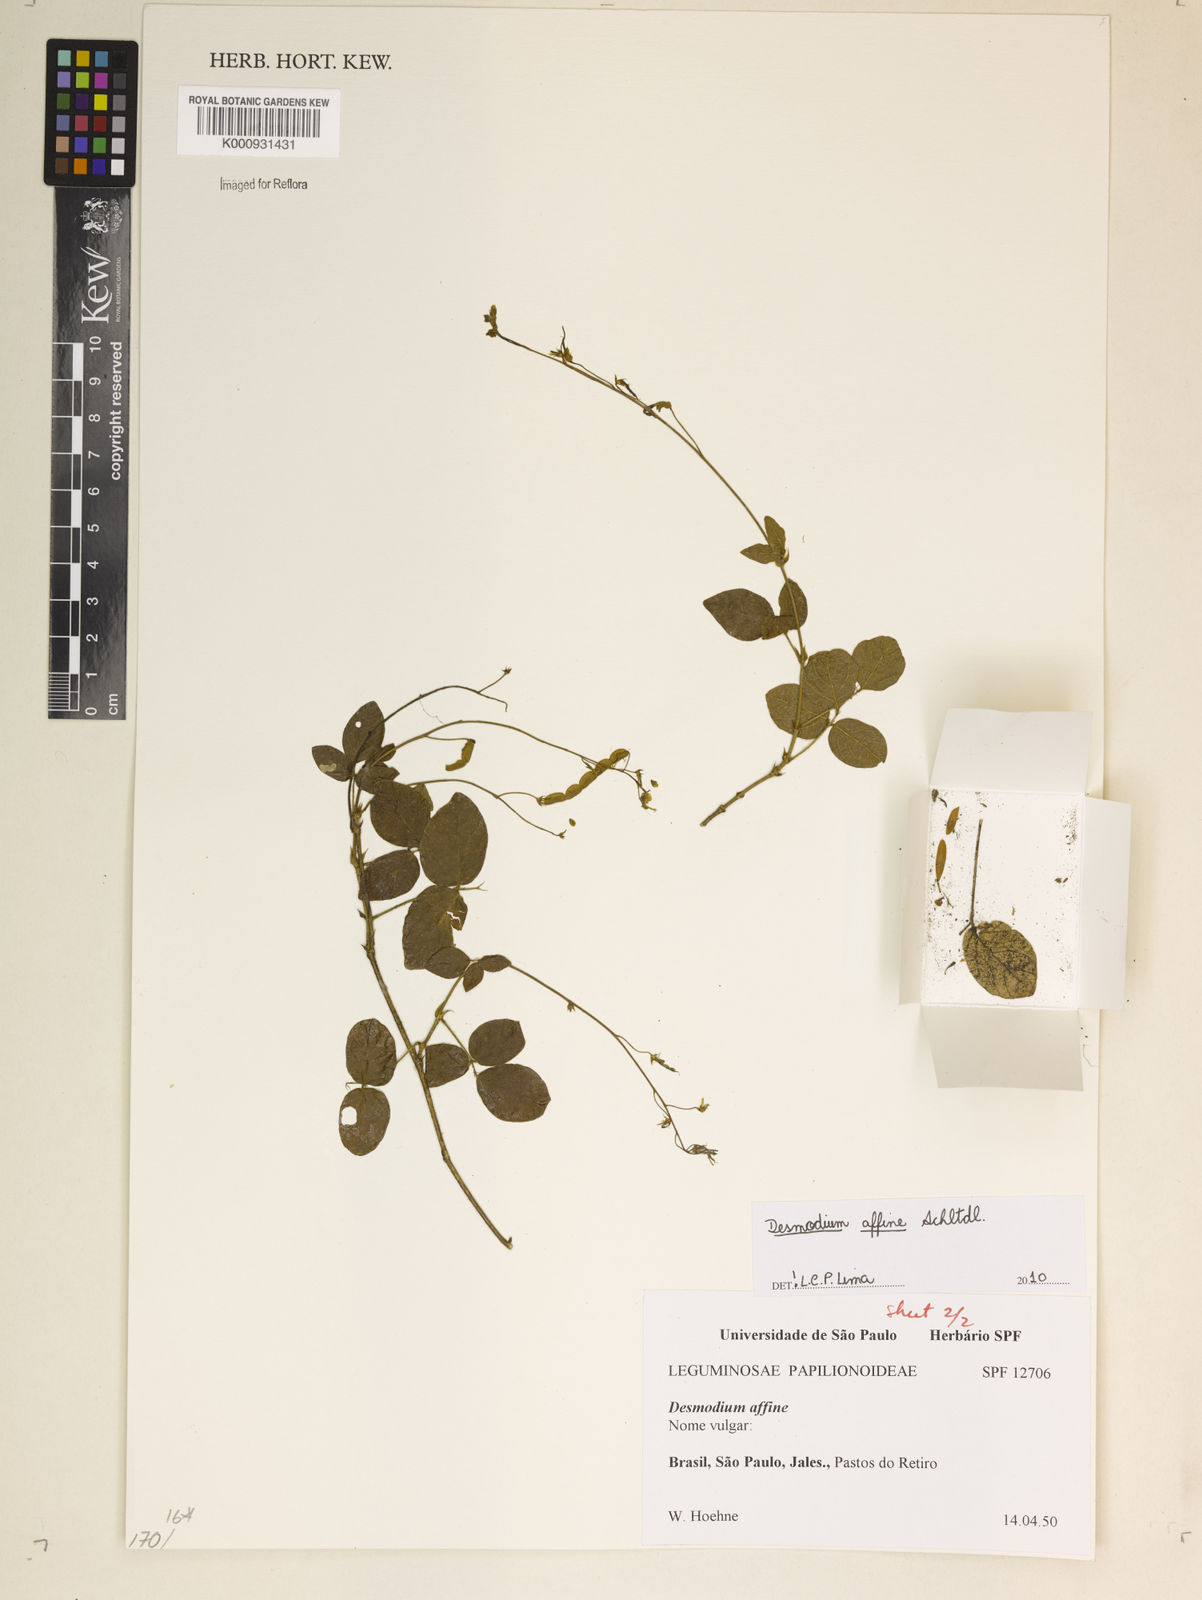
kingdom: Plantae
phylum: Tracheophyta
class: Magnoliopsida
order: Fabales
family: Fabaceae
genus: Desmodium
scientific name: Desmodium affine
